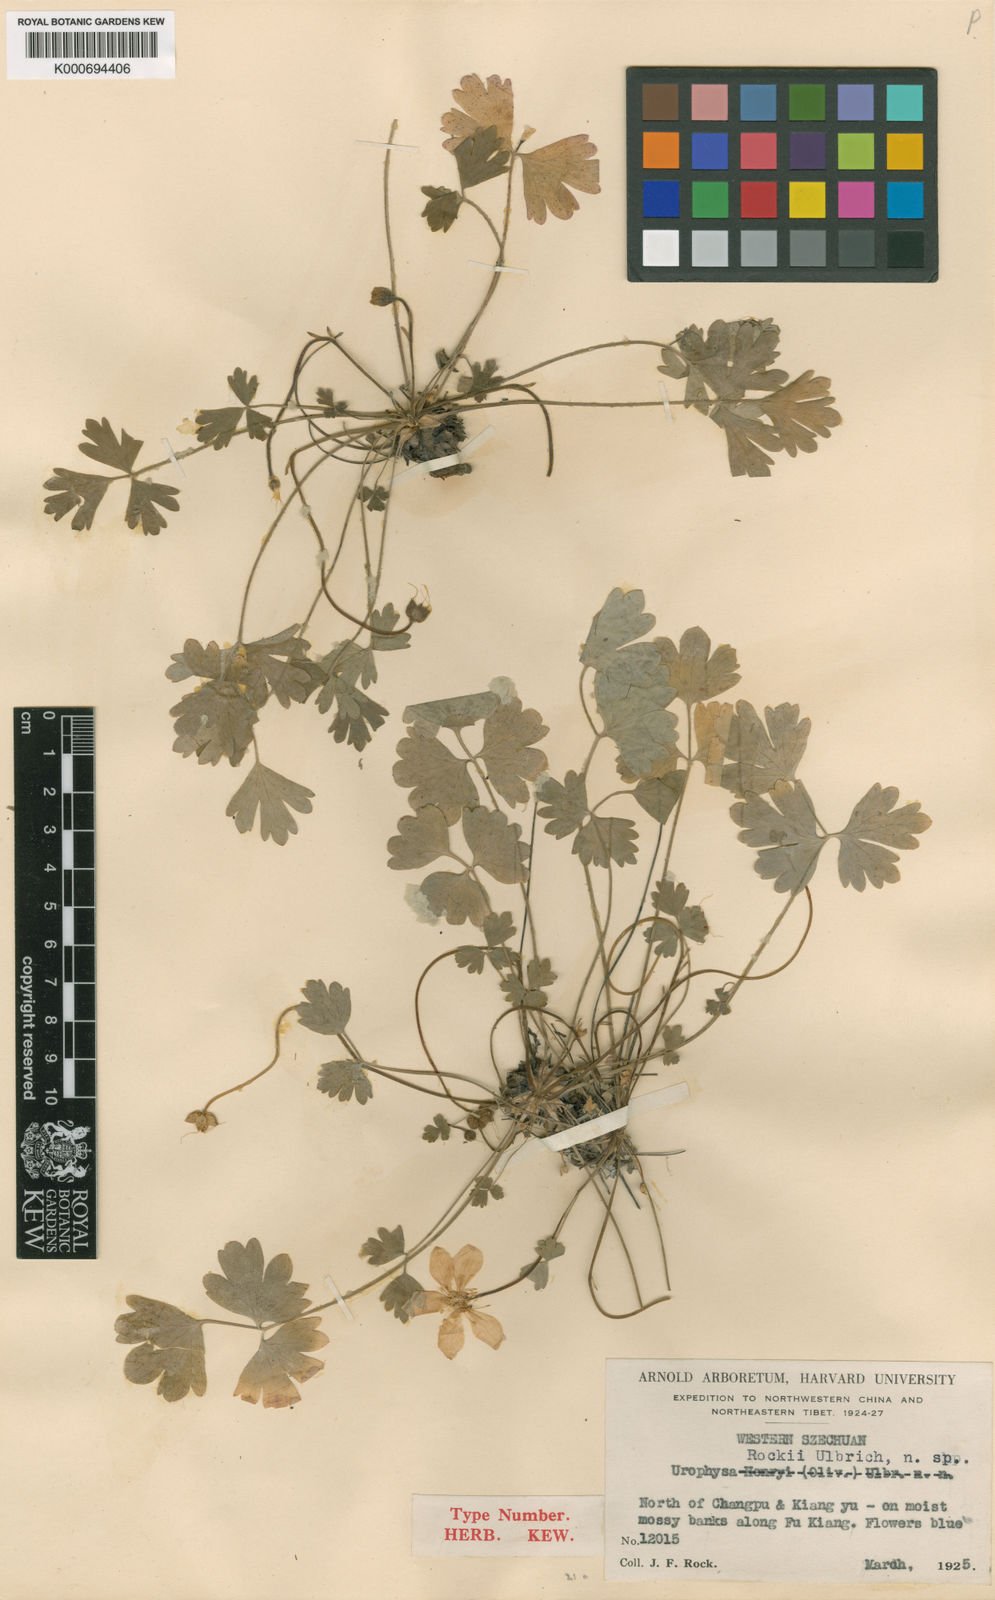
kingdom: Plantae
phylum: Tracheophyta
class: Magnoliopsida
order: Ranunculales
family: Ranunculaceae
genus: Urophysa
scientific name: Urophysa rockii
